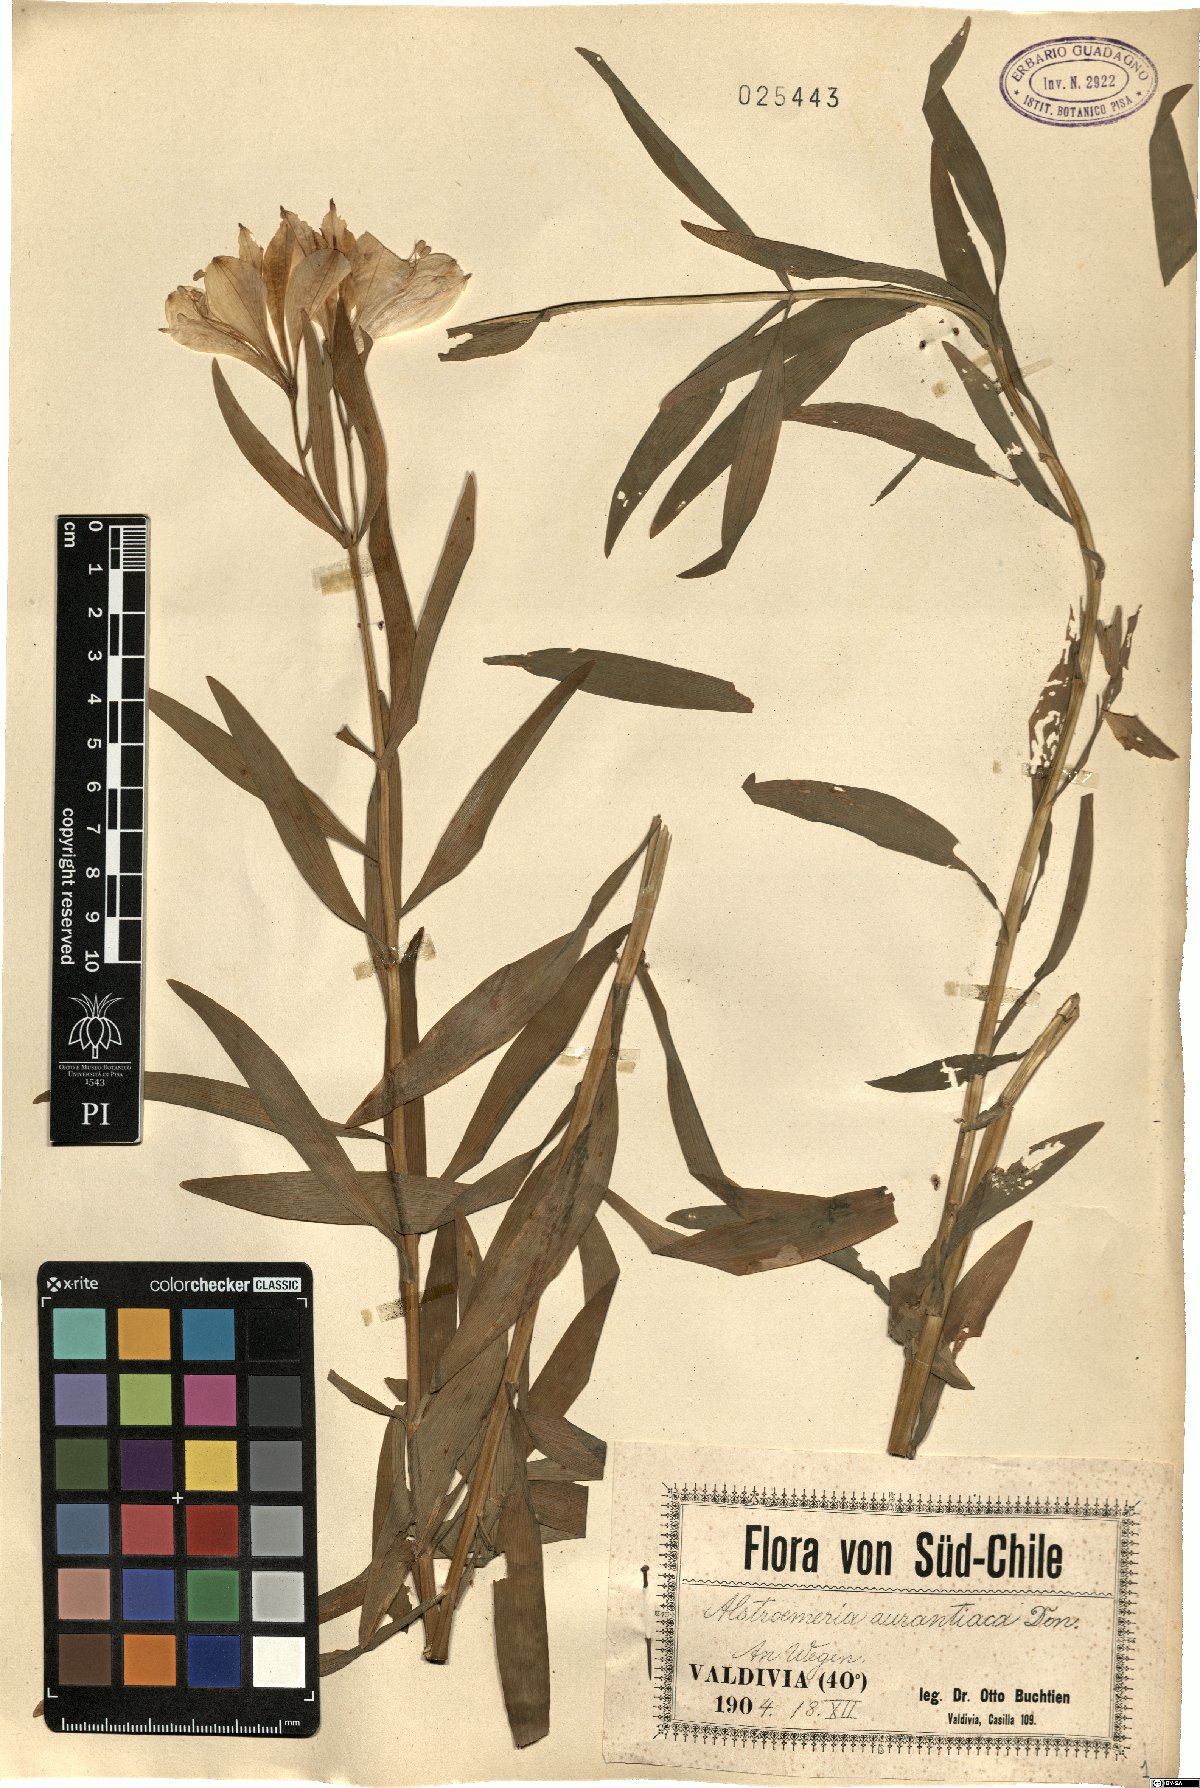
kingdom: Plantae
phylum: Tracheophyta
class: Liliopsida
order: Liliales
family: Alstroemeriaceae
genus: Alstroemeria
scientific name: Alstroemeria aurea
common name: Peruvian lily
